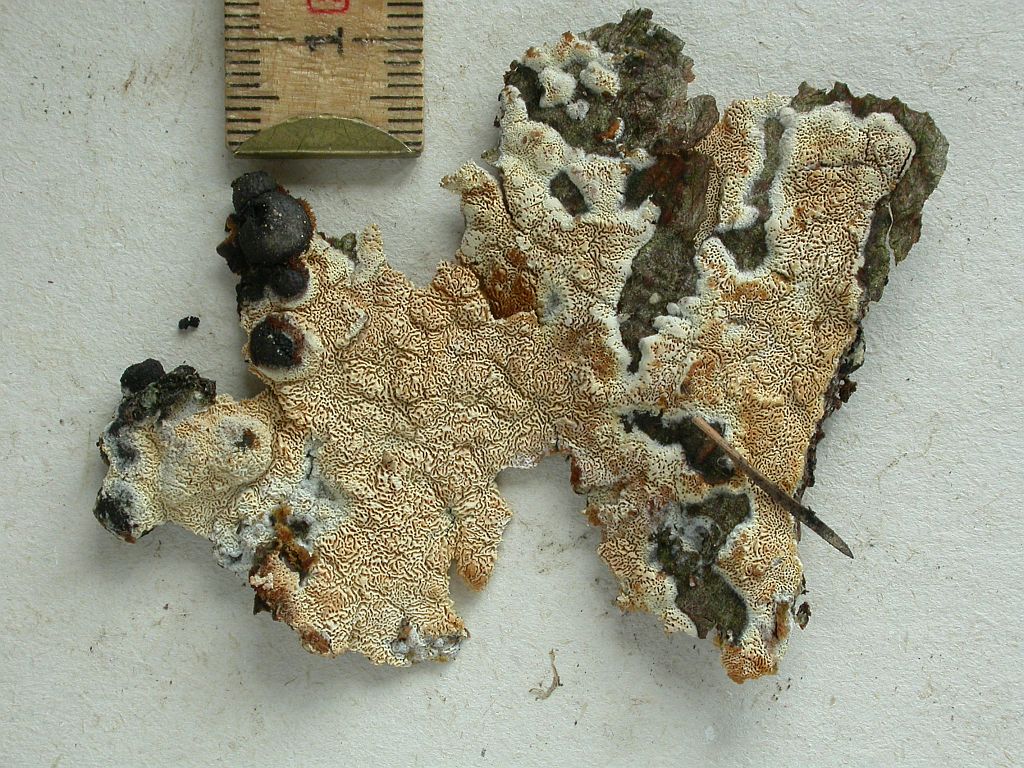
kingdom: Fungi
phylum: Basidiomycota
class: Agaricomycetes
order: Hymenochaetales
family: Schizoporaceae
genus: Xylodon
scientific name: Xylodon subtropicus
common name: labyrint-tandsvamp
